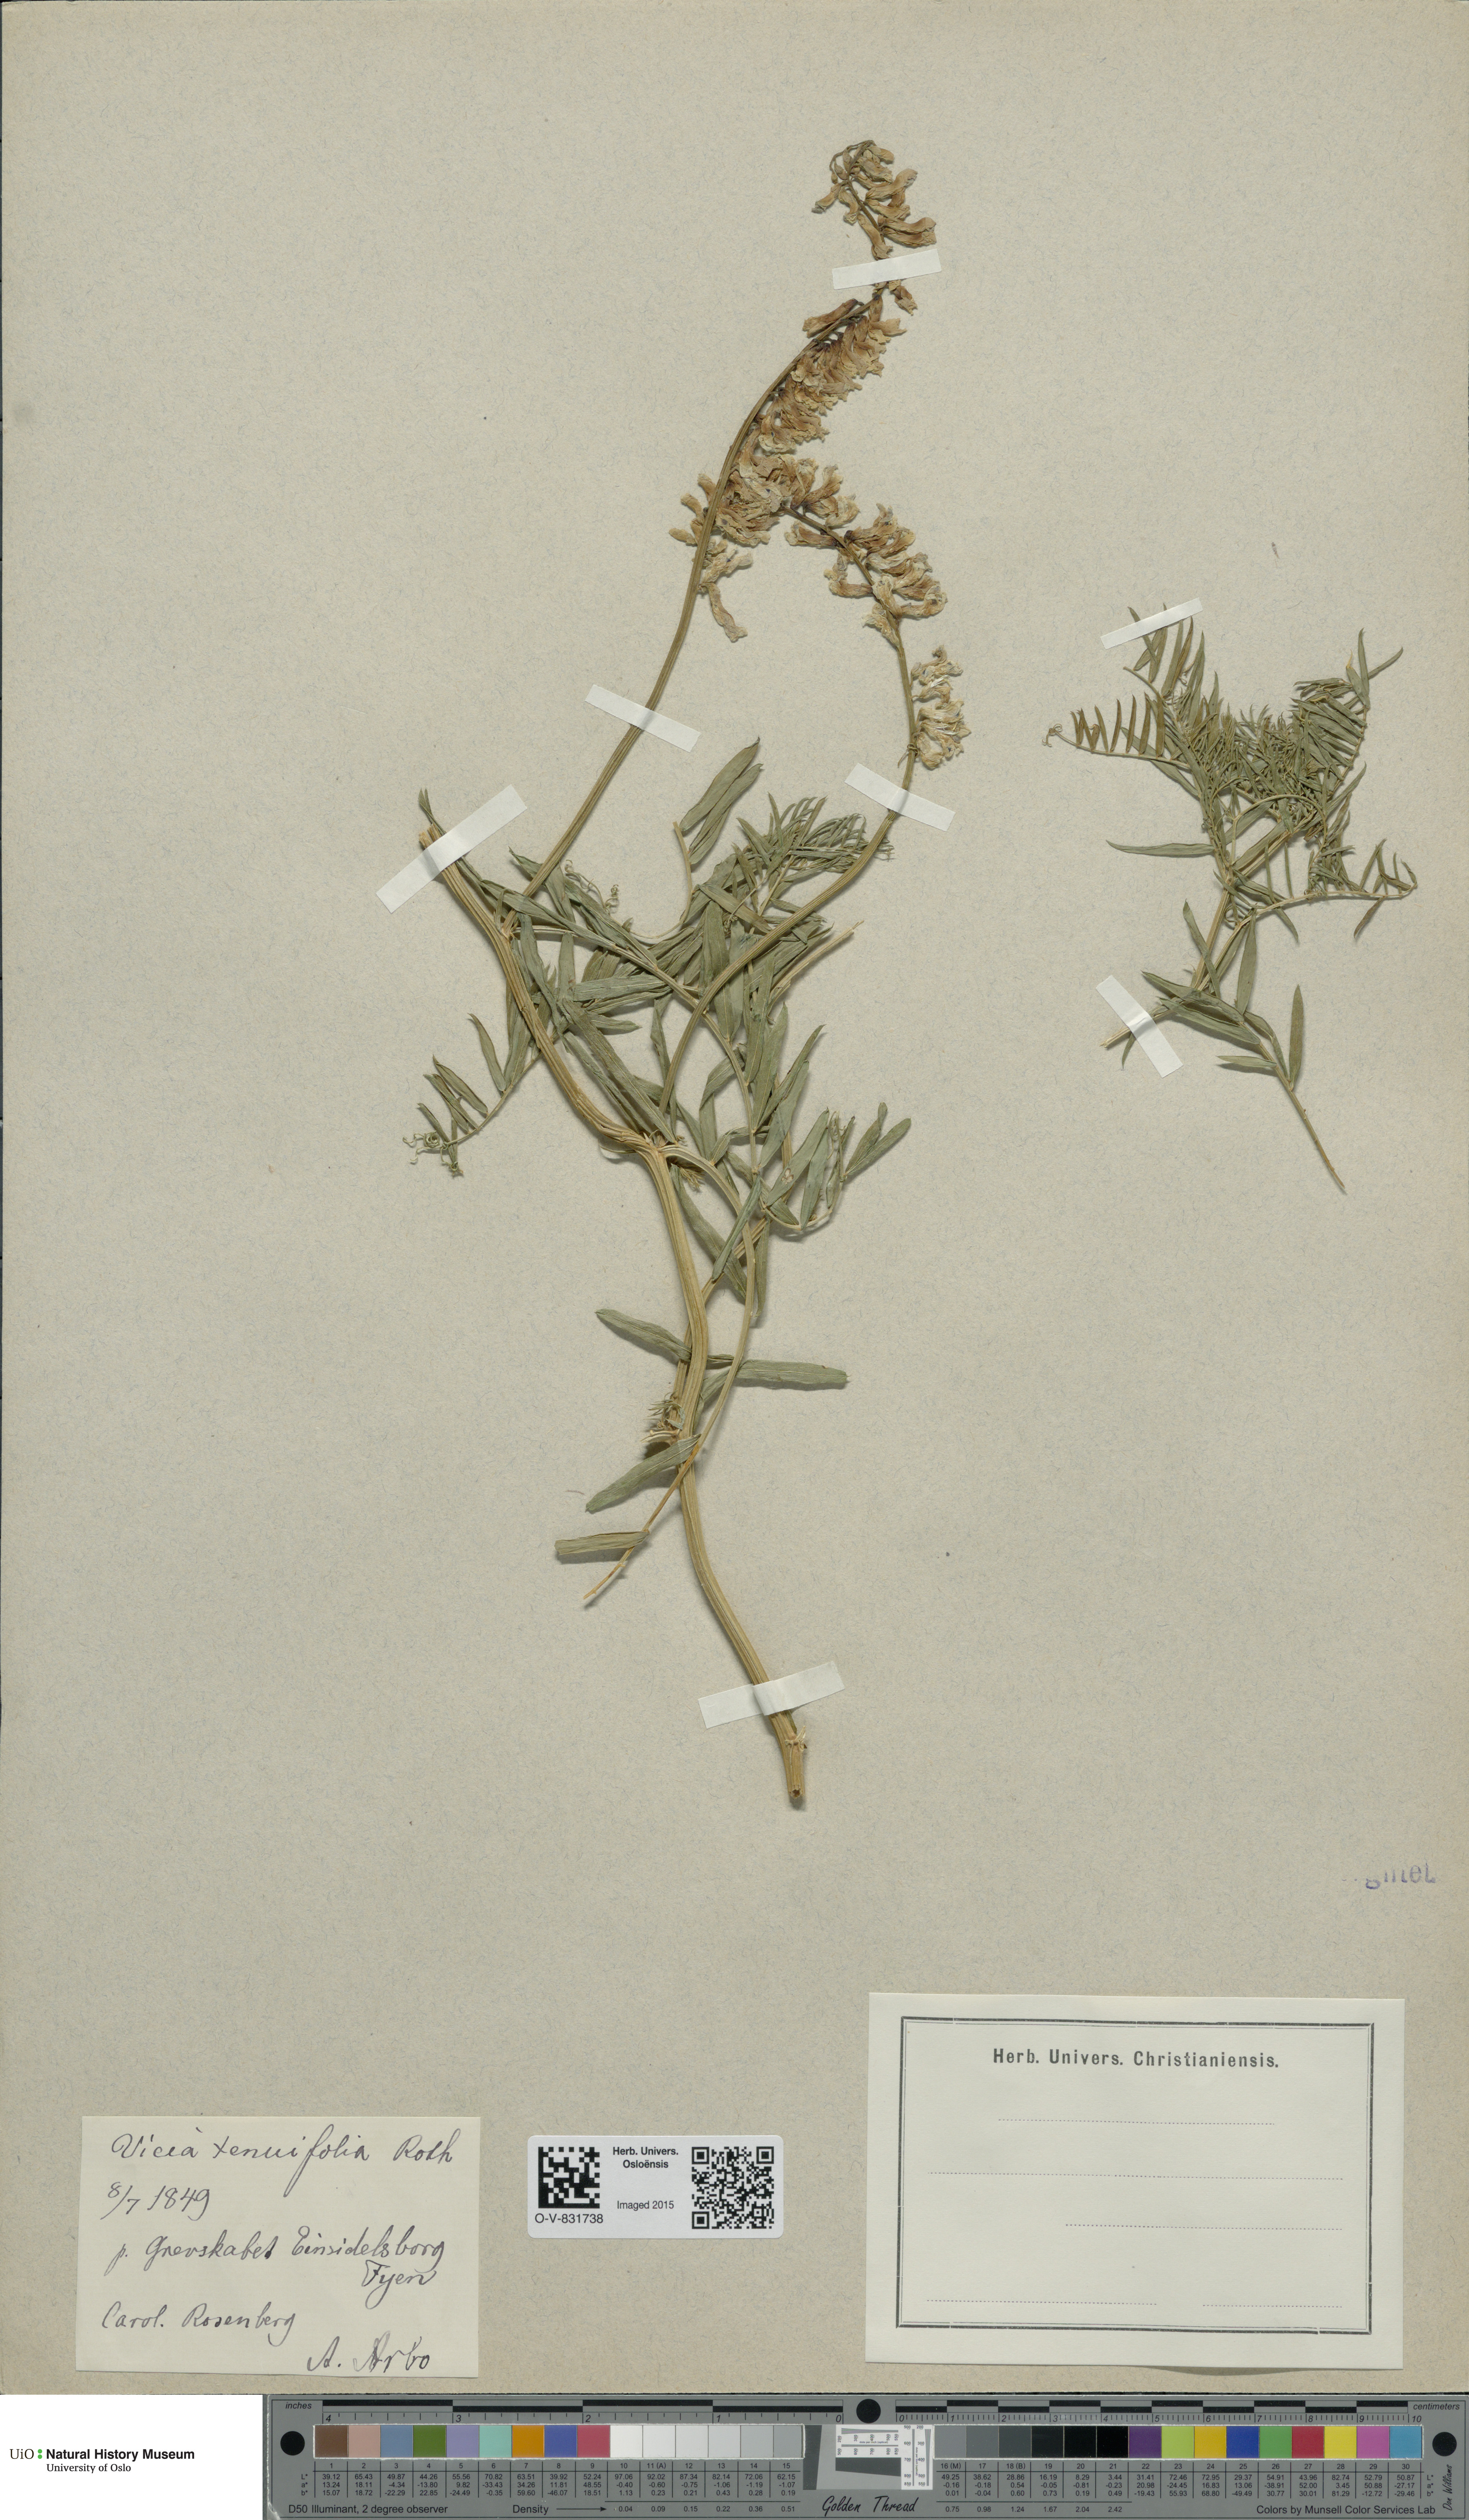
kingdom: Plantae
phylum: Tracheophyta
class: Magnoliopsida
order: Fabales
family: Fabaceae
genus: Vicia
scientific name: Vicia tenuifolia
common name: Fine-leaved vetch
